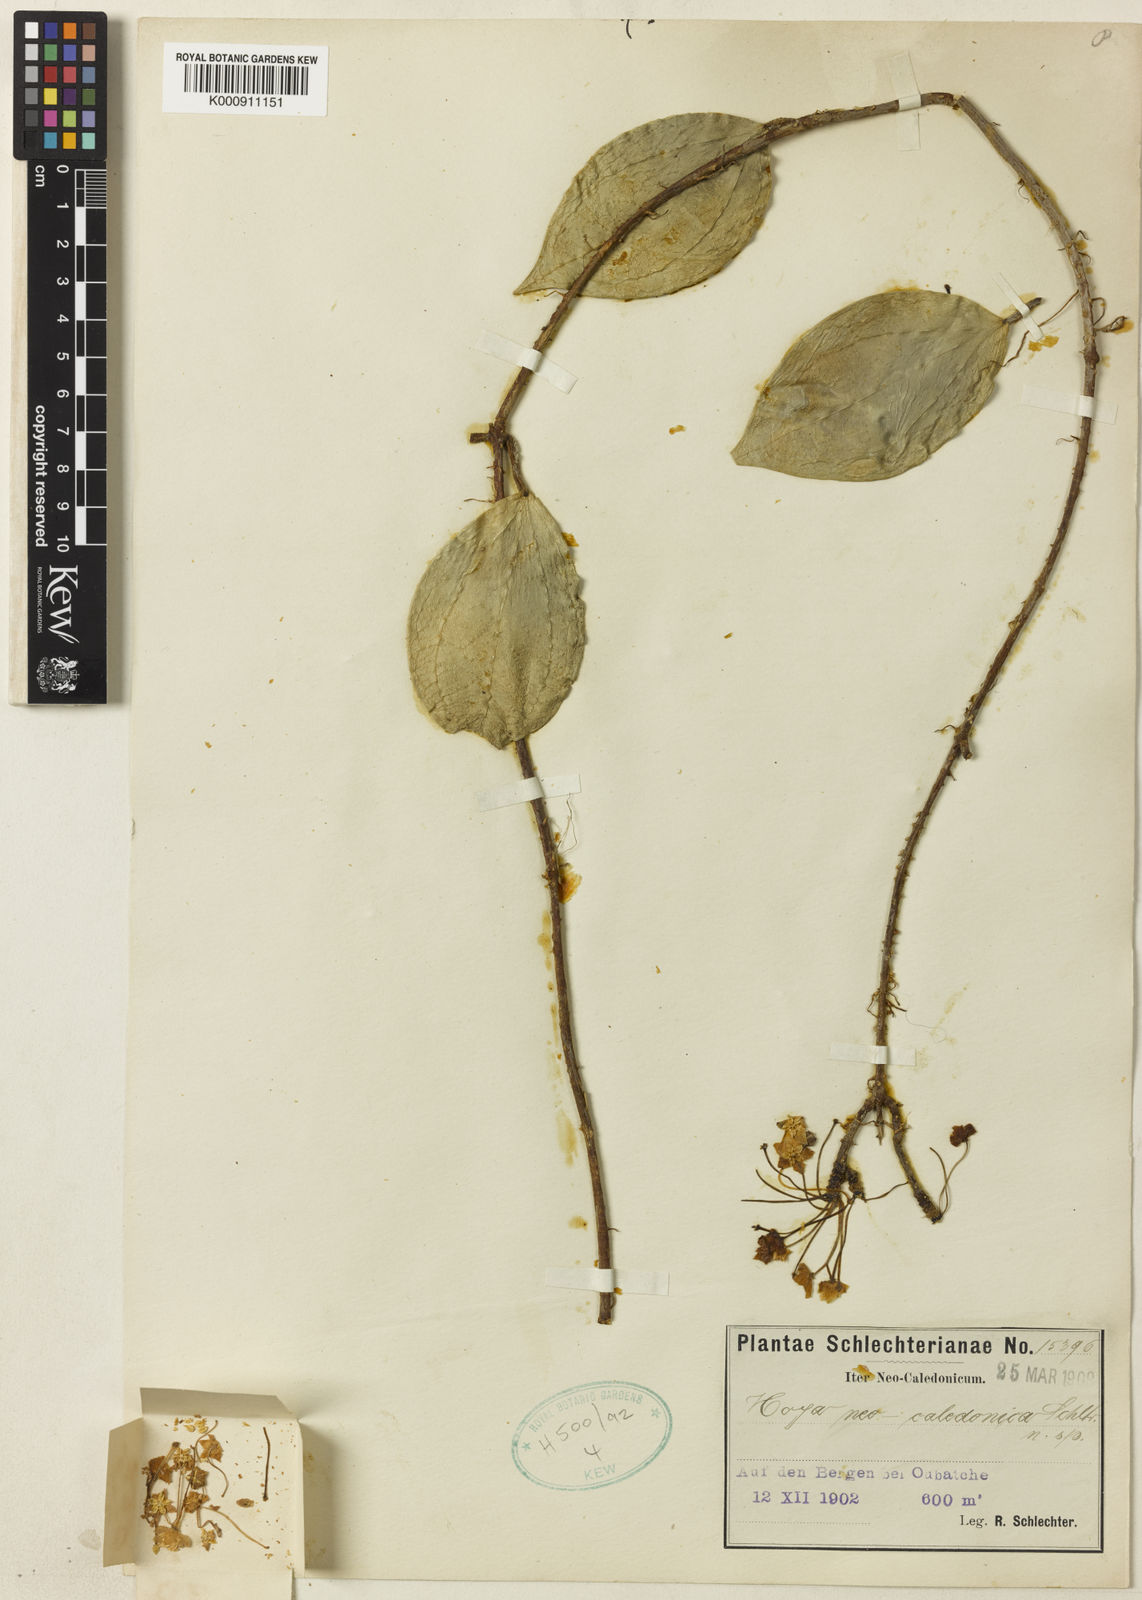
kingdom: Plantae
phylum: Tracheophyta
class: Magnoliopsida
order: Gentianales
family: Apocynaceae
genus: Hoya
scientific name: Hoya nicholsoniae
